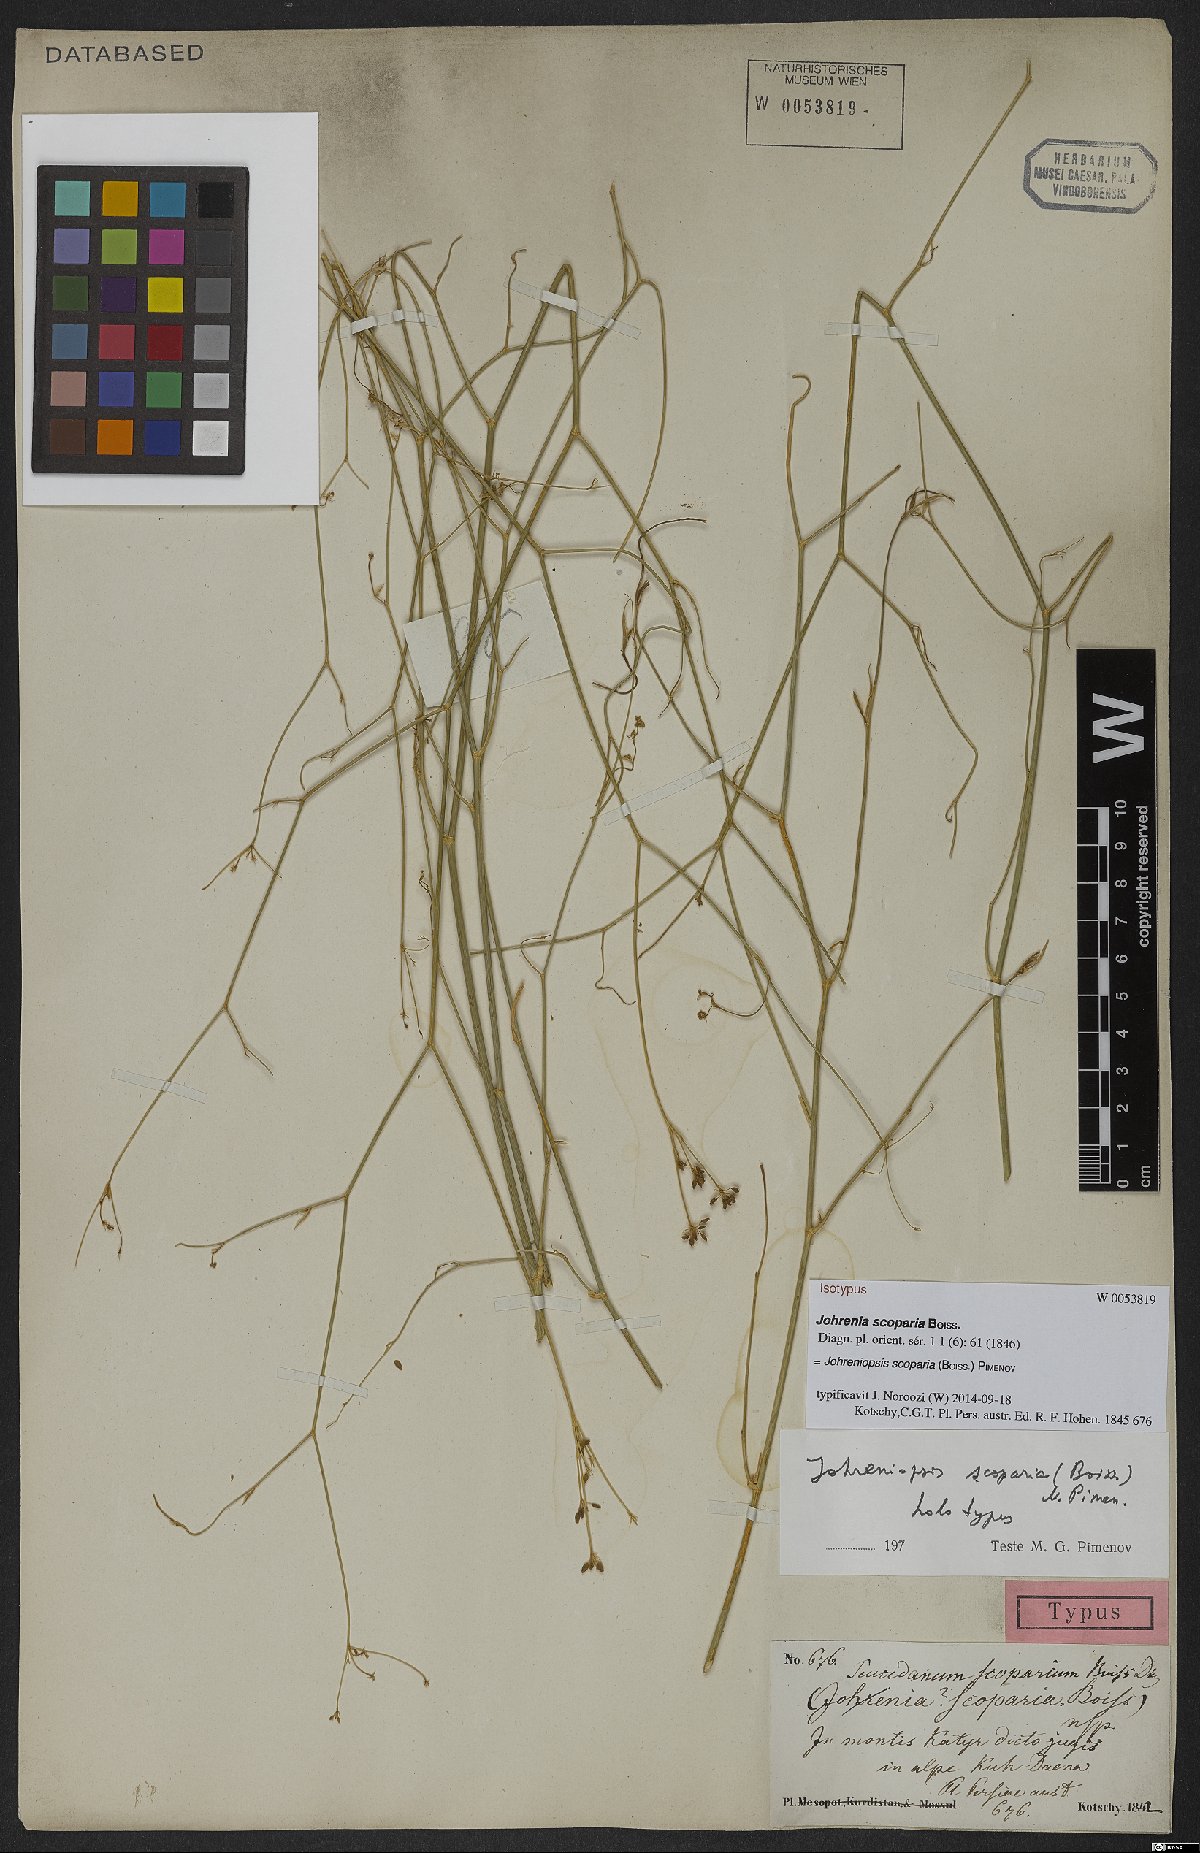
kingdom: Plantae
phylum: Tracheophyta
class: Magnoliopsida
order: Apiales
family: Apiaceae
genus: Dichoropetalum
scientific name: Dichoropetalum scoparium
